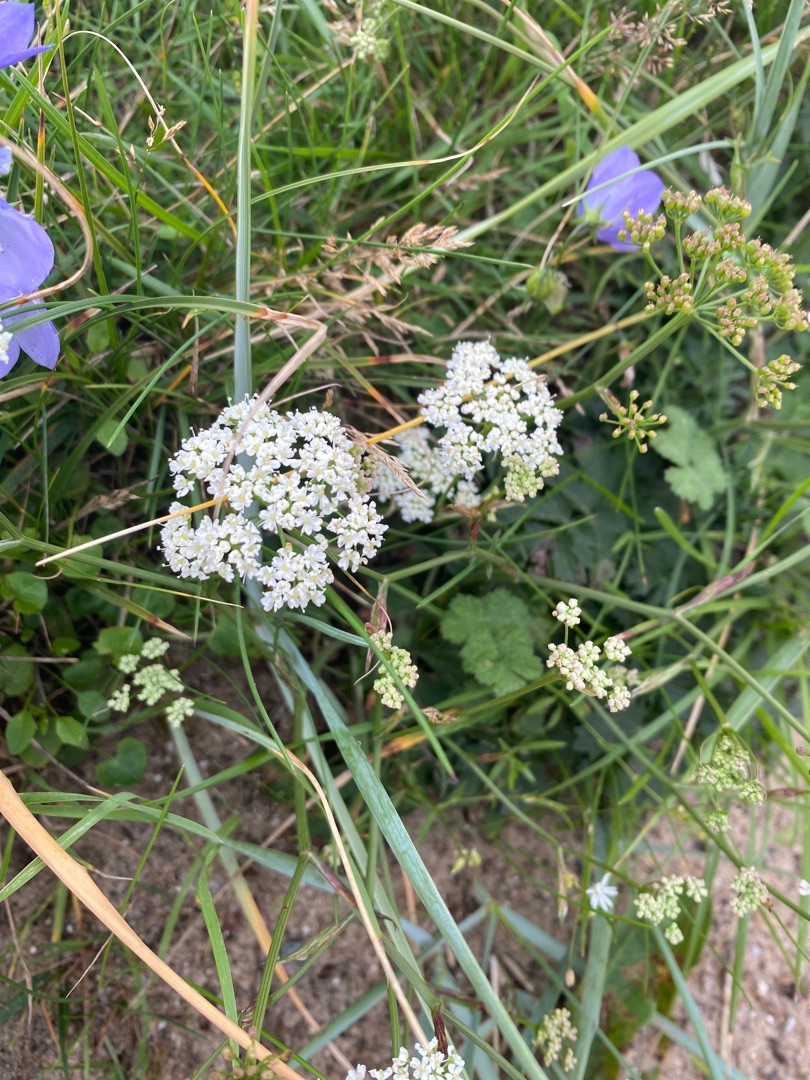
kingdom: Plantae
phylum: Tracheophyta
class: Magnoliopsida
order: Apiales
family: Apiaceae
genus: Pimpinella
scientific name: Pimpinella saxifraga
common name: Almindelig pimpinelle
